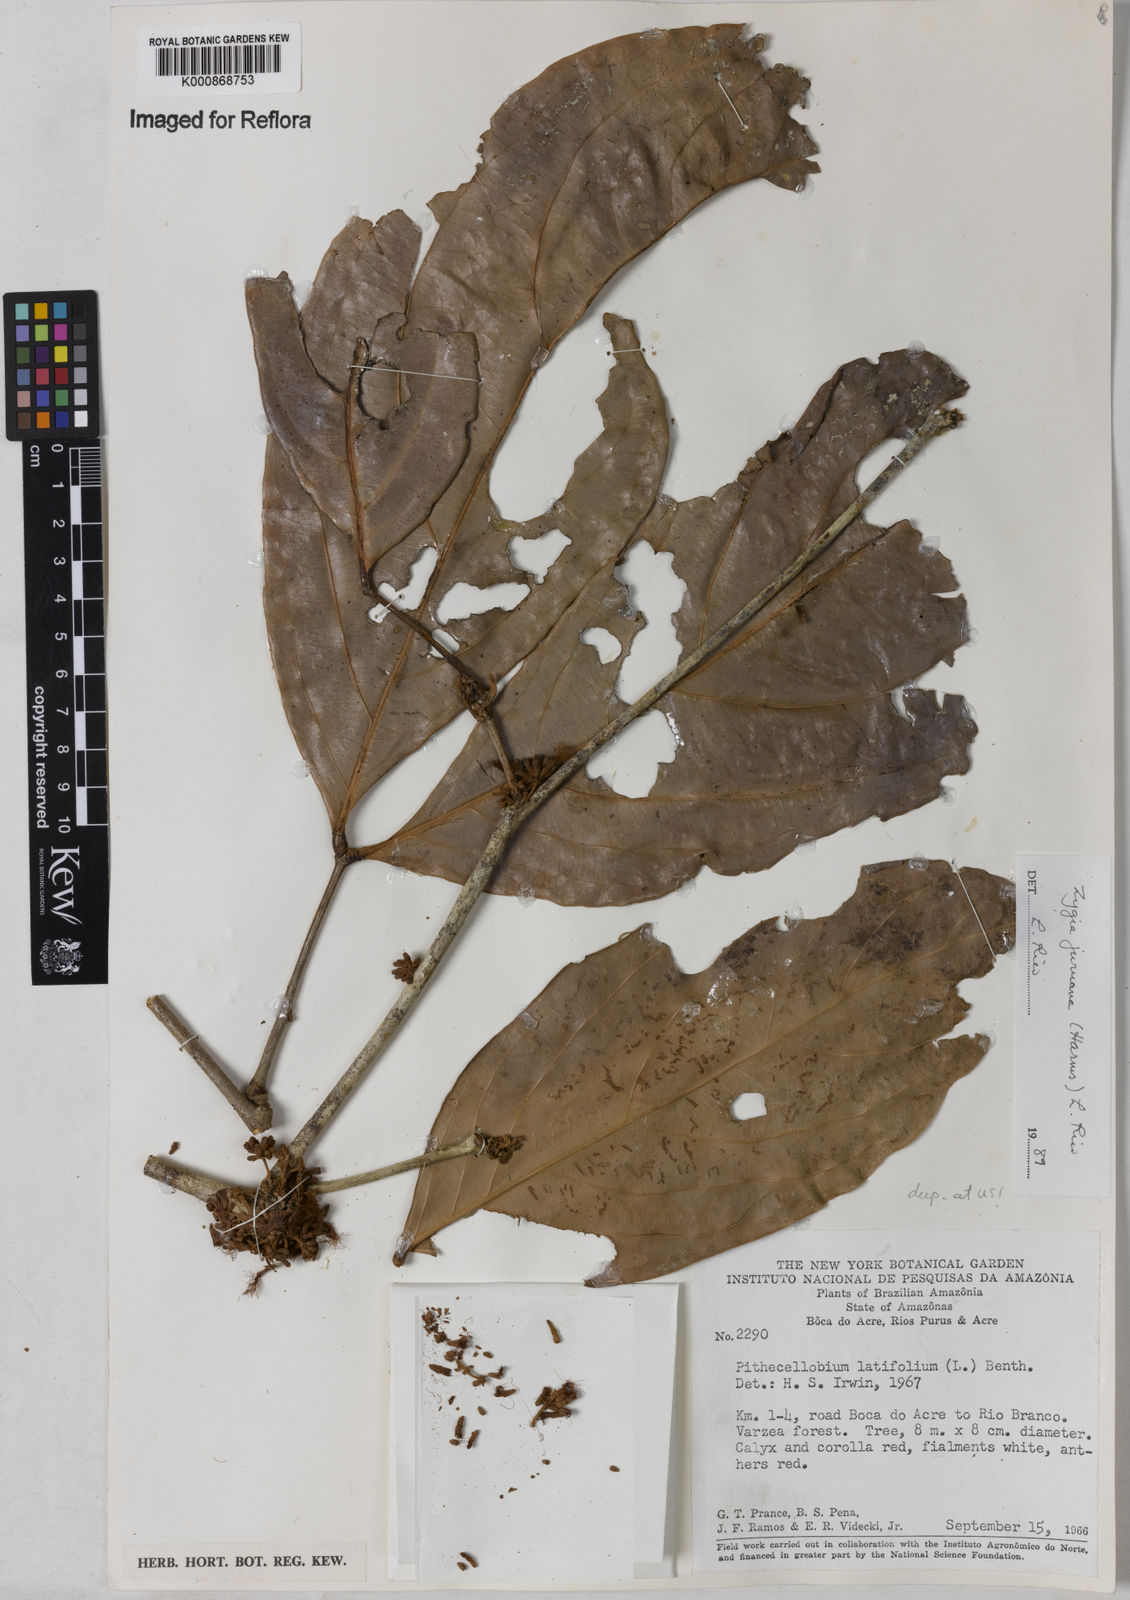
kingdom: Plantae
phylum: Tracheophyta
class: Magnoliopsida
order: Fabales
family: Fabaceae
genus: Zygia
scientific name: Zygia juruana
